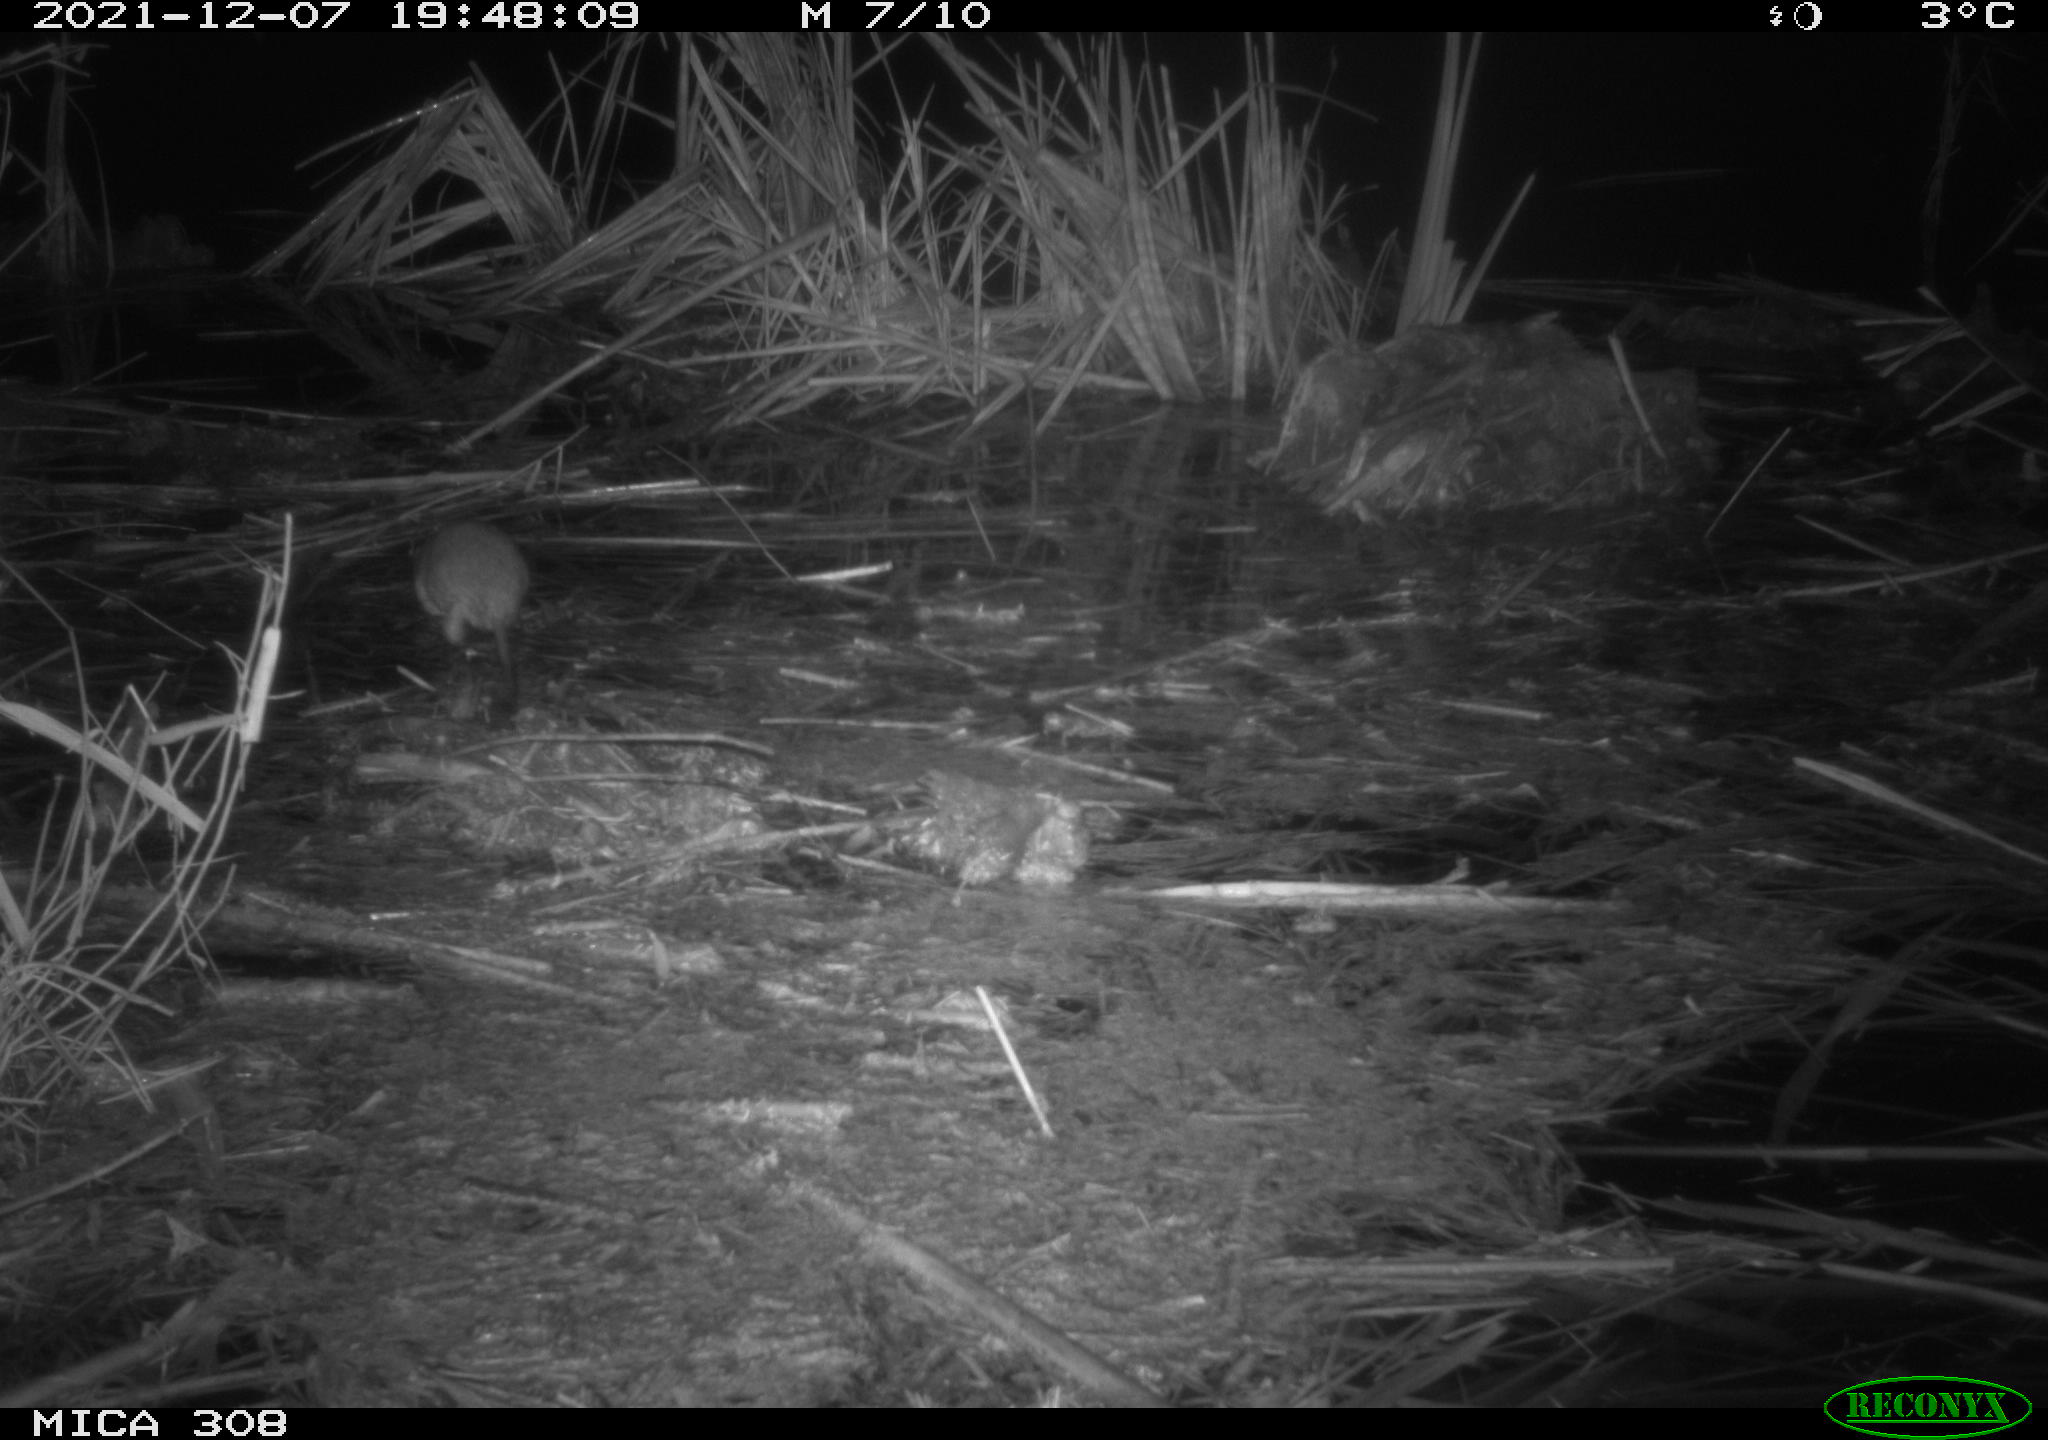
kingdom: Animalia
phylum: Chordata
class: Mammalia
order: Rodentia
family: Muridae
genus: Rattus
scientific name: Rattus norvegicus
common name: Brown rat
